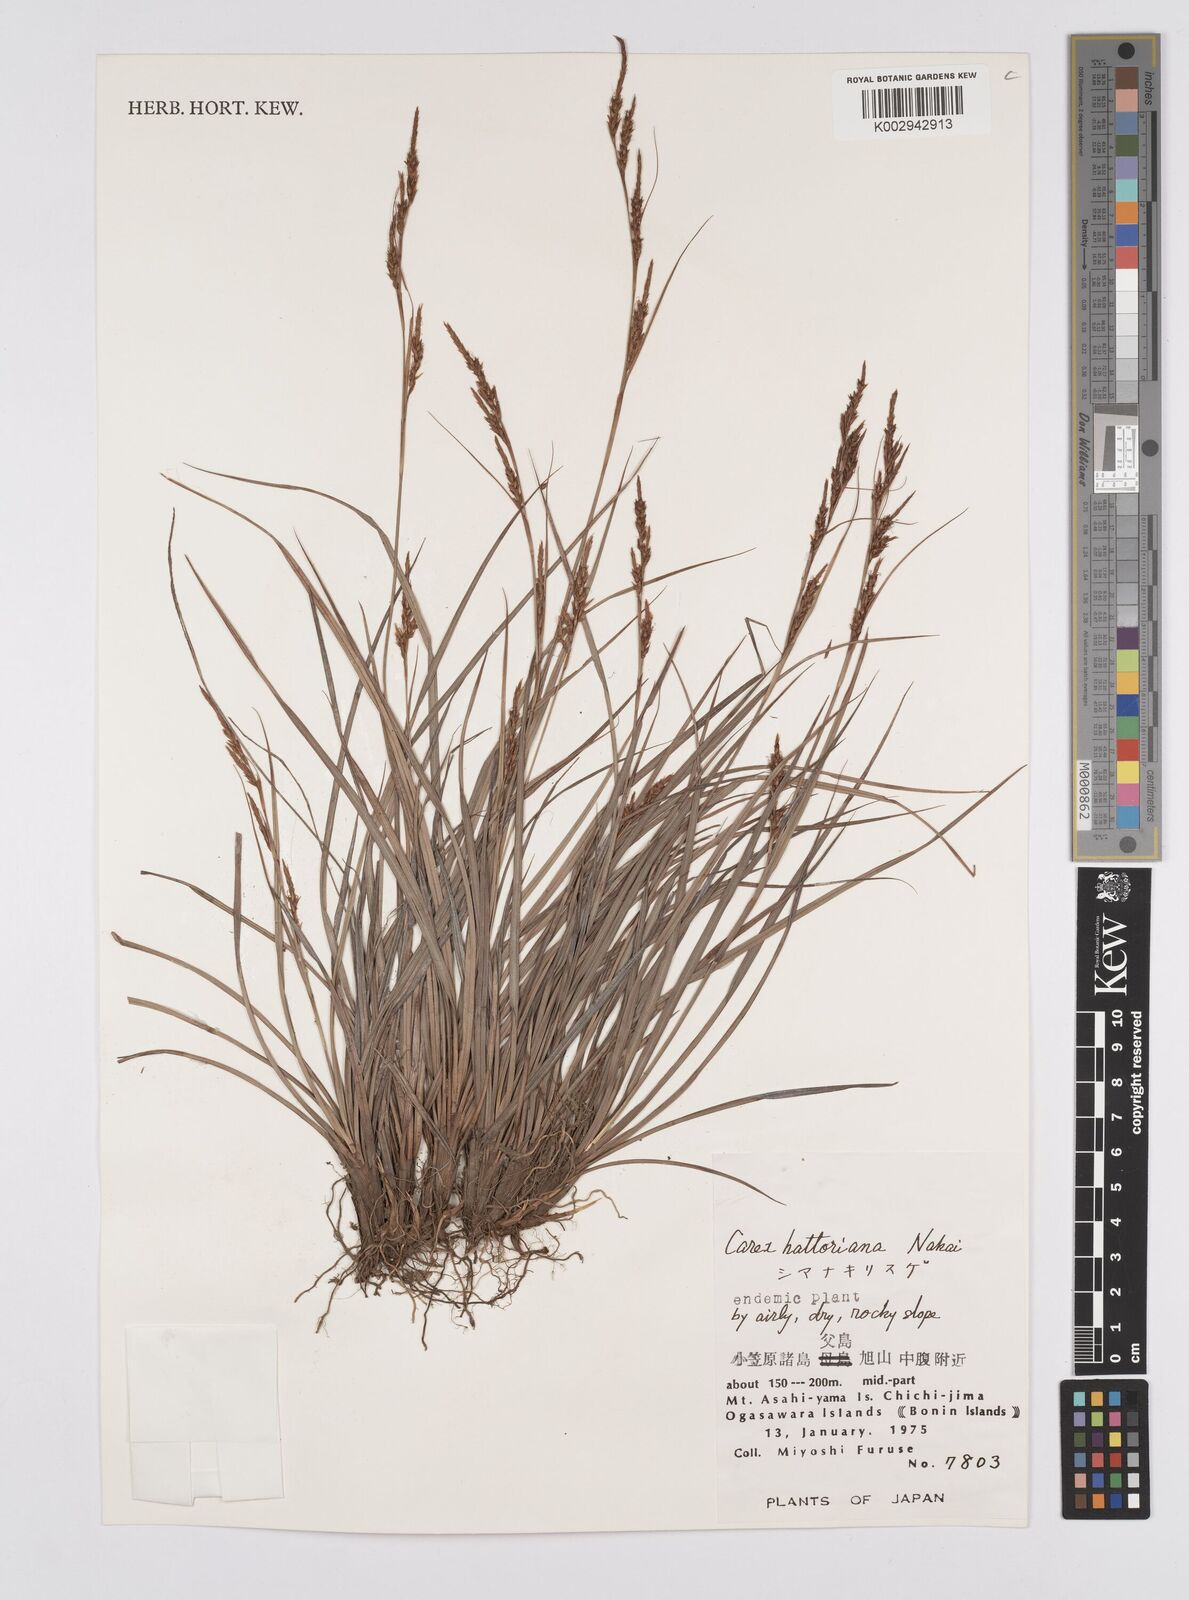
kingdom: Plantae
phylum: Tracheophyta
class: Liliopsida
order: Poales
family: Cyperaceae
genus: Carex
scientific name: Carex hattoriana
